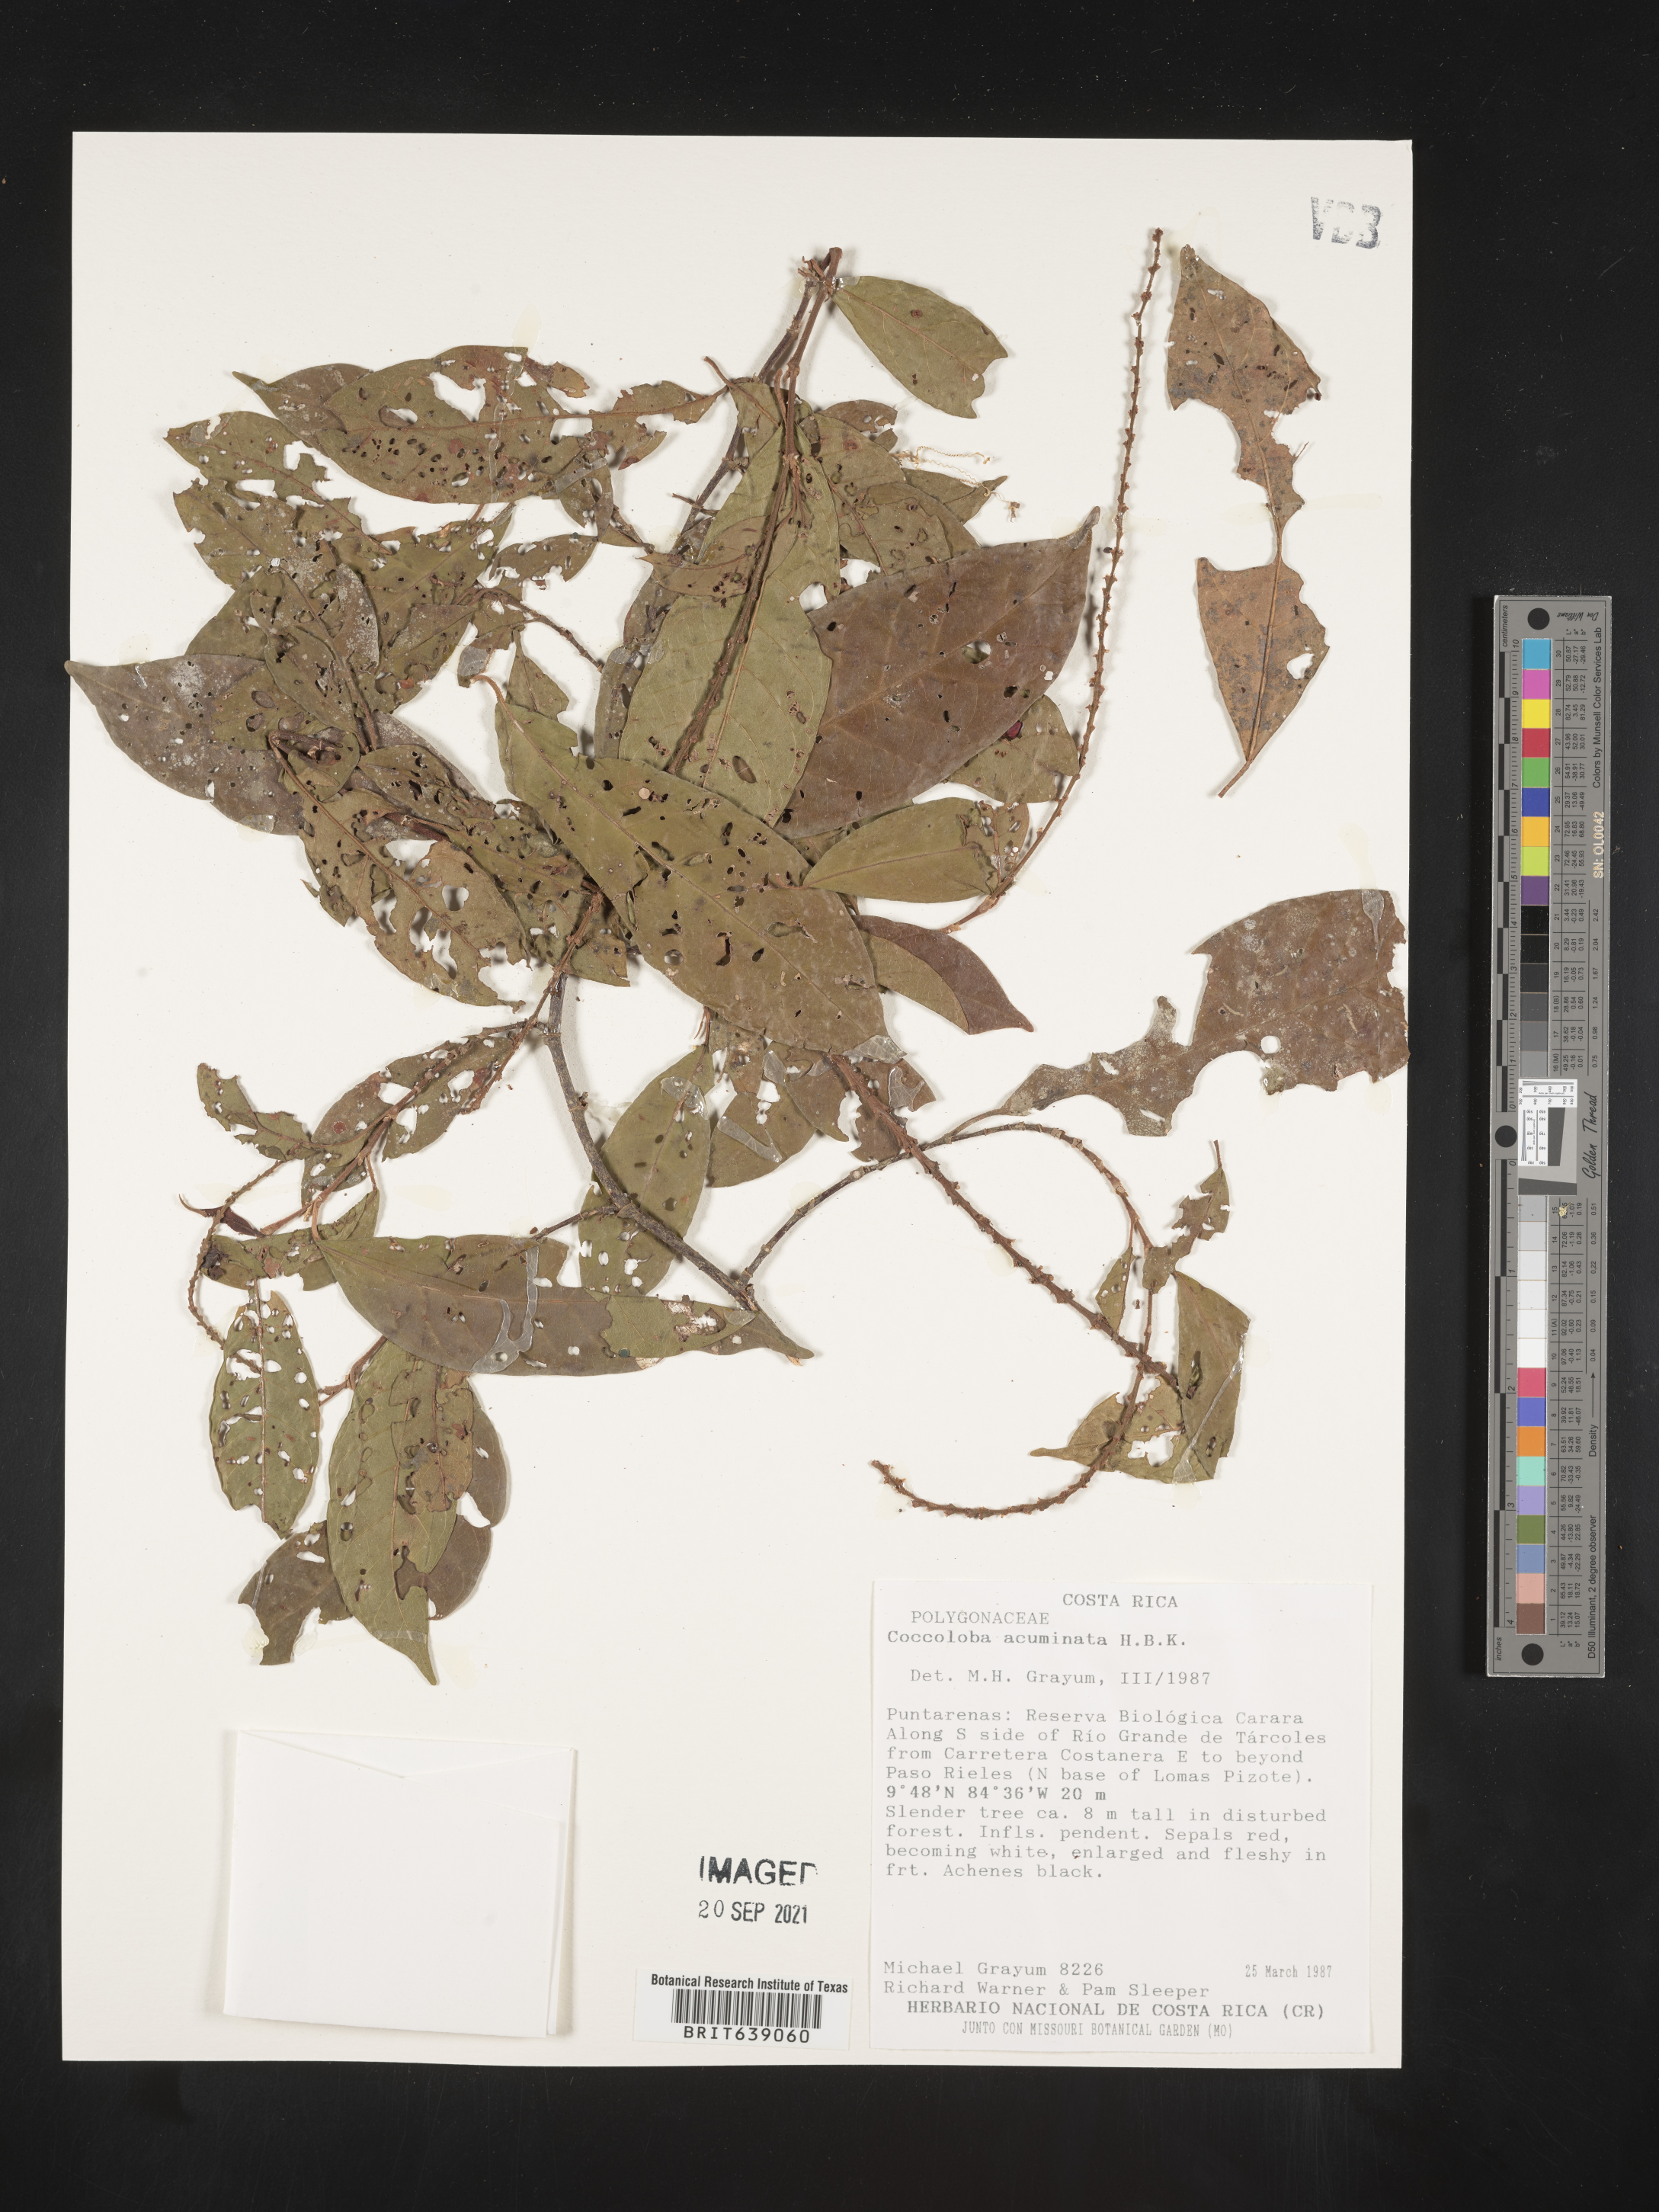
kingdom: Plantae
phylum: Tracheophyta
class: Magnoliopsida
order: Caryophyllales
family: Polygonaceae
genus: Coccoloba
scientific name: Coccoloba
